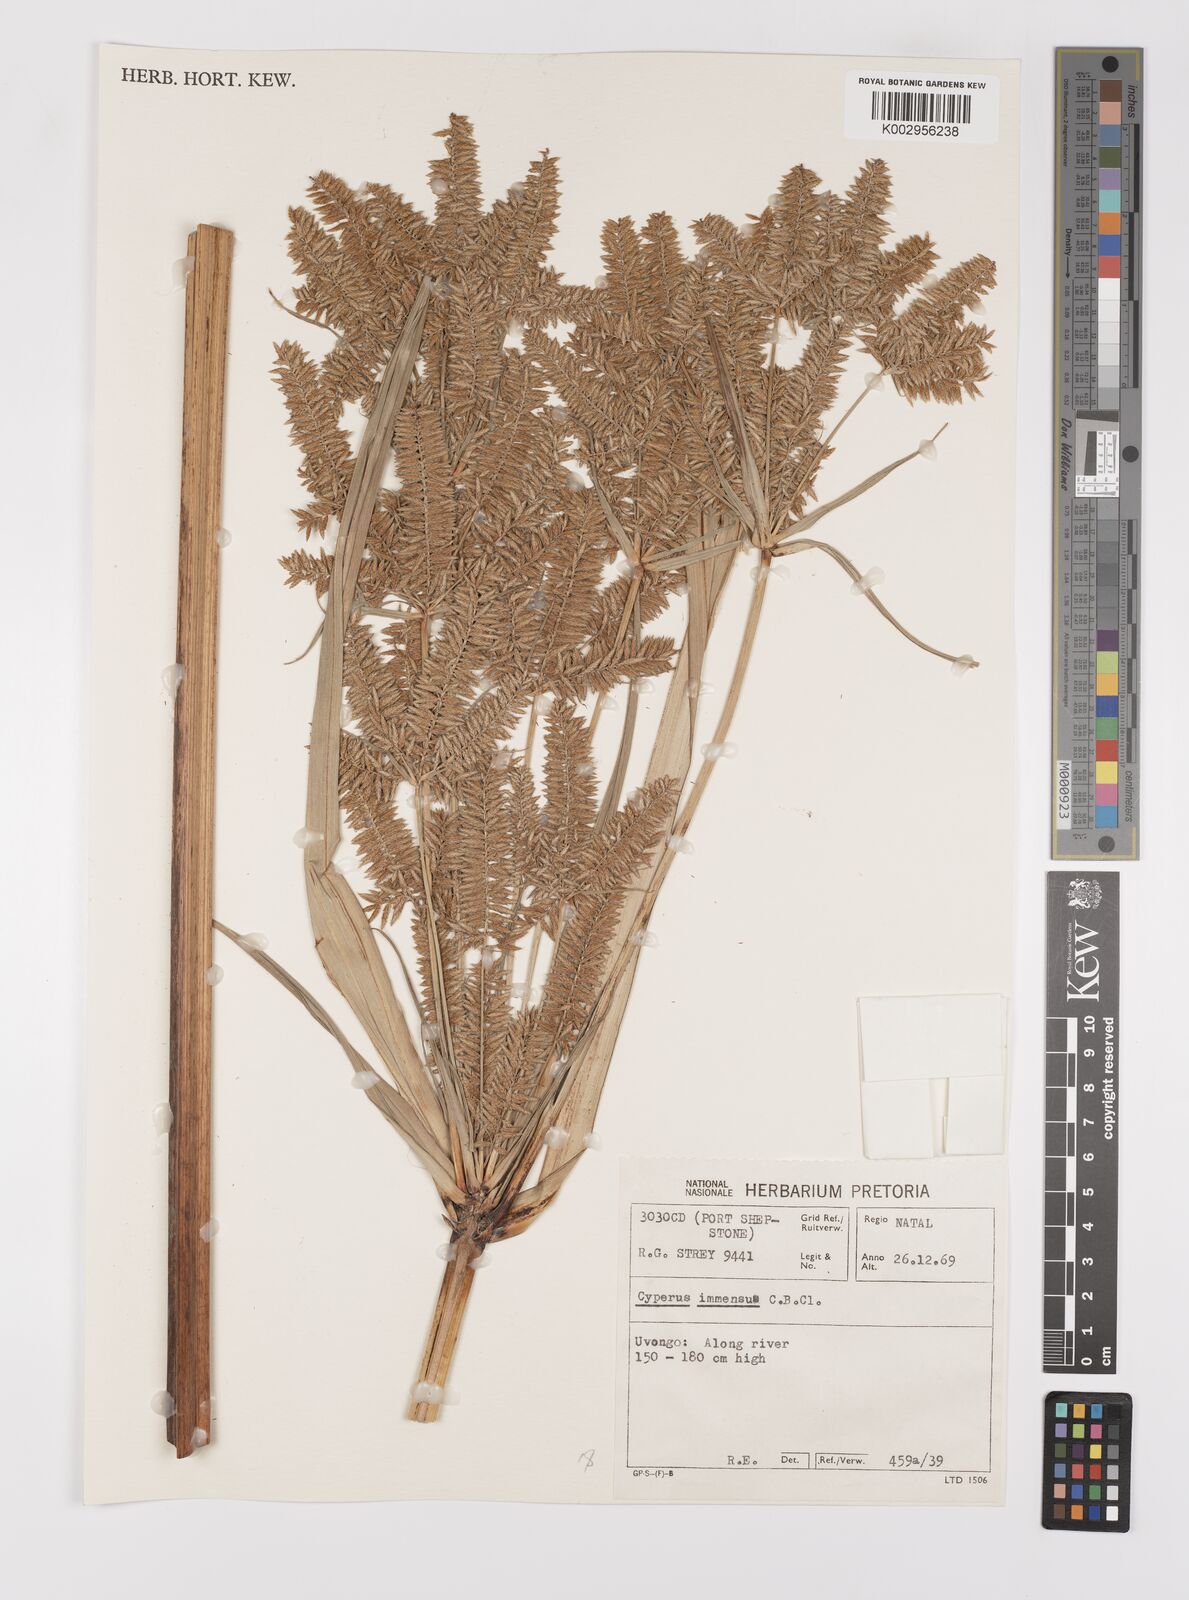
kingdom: Plantae
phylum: Tracheophyta
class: Liliopsida
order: Poales
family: Cyperaceae
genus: Cyperus
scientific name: Cyperus dives
